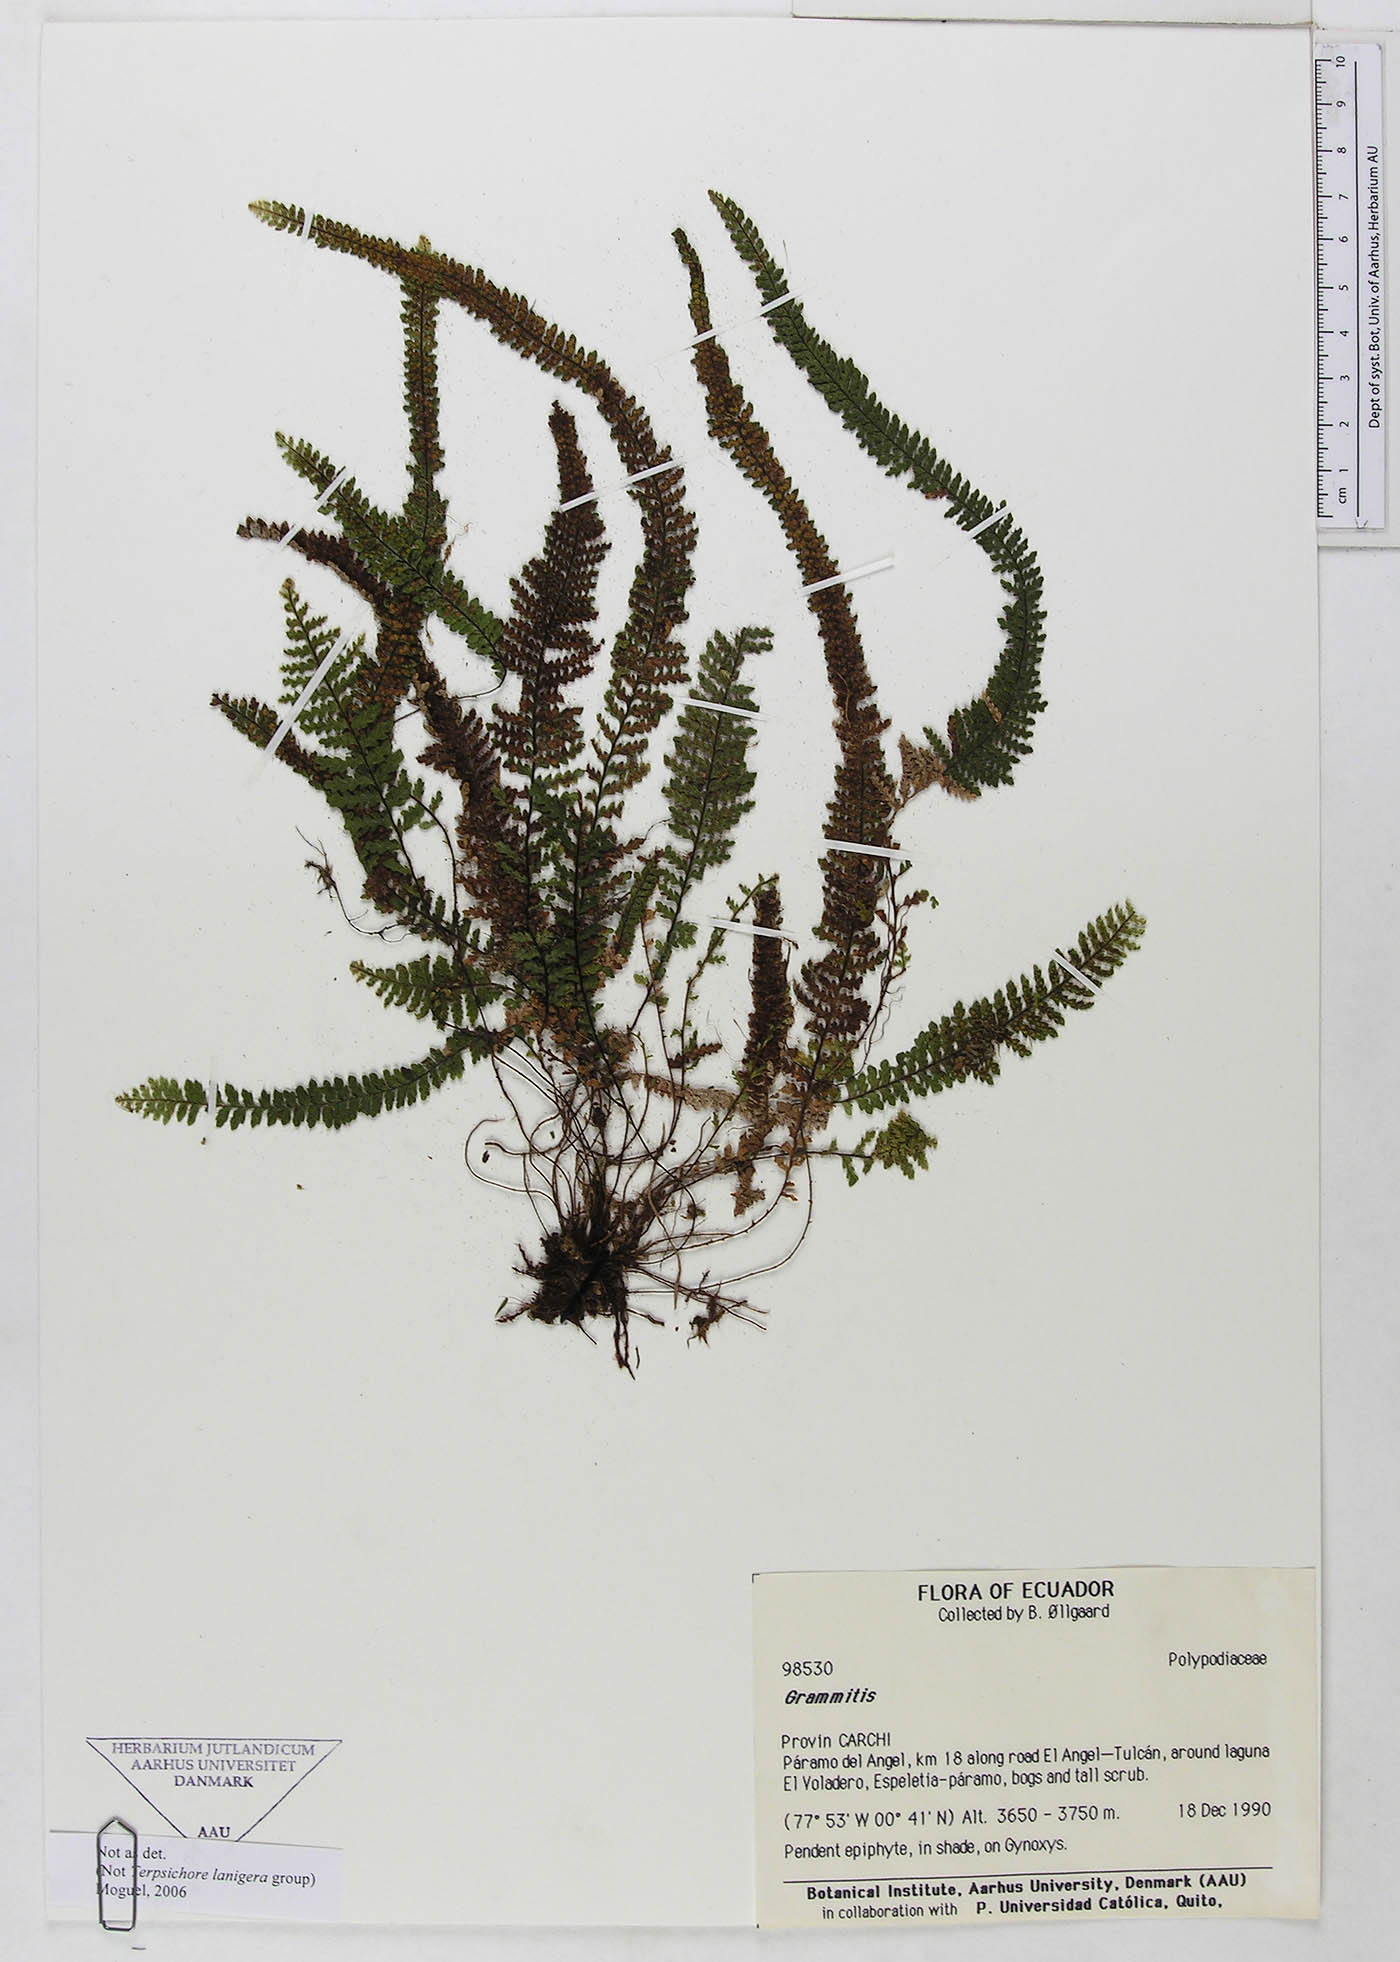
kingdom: Plantae
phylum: Tracheophyta
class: Polypodiopsida
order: Polypodiales
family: Polypodiaceae
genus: Grammitis
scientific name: Grammitis
